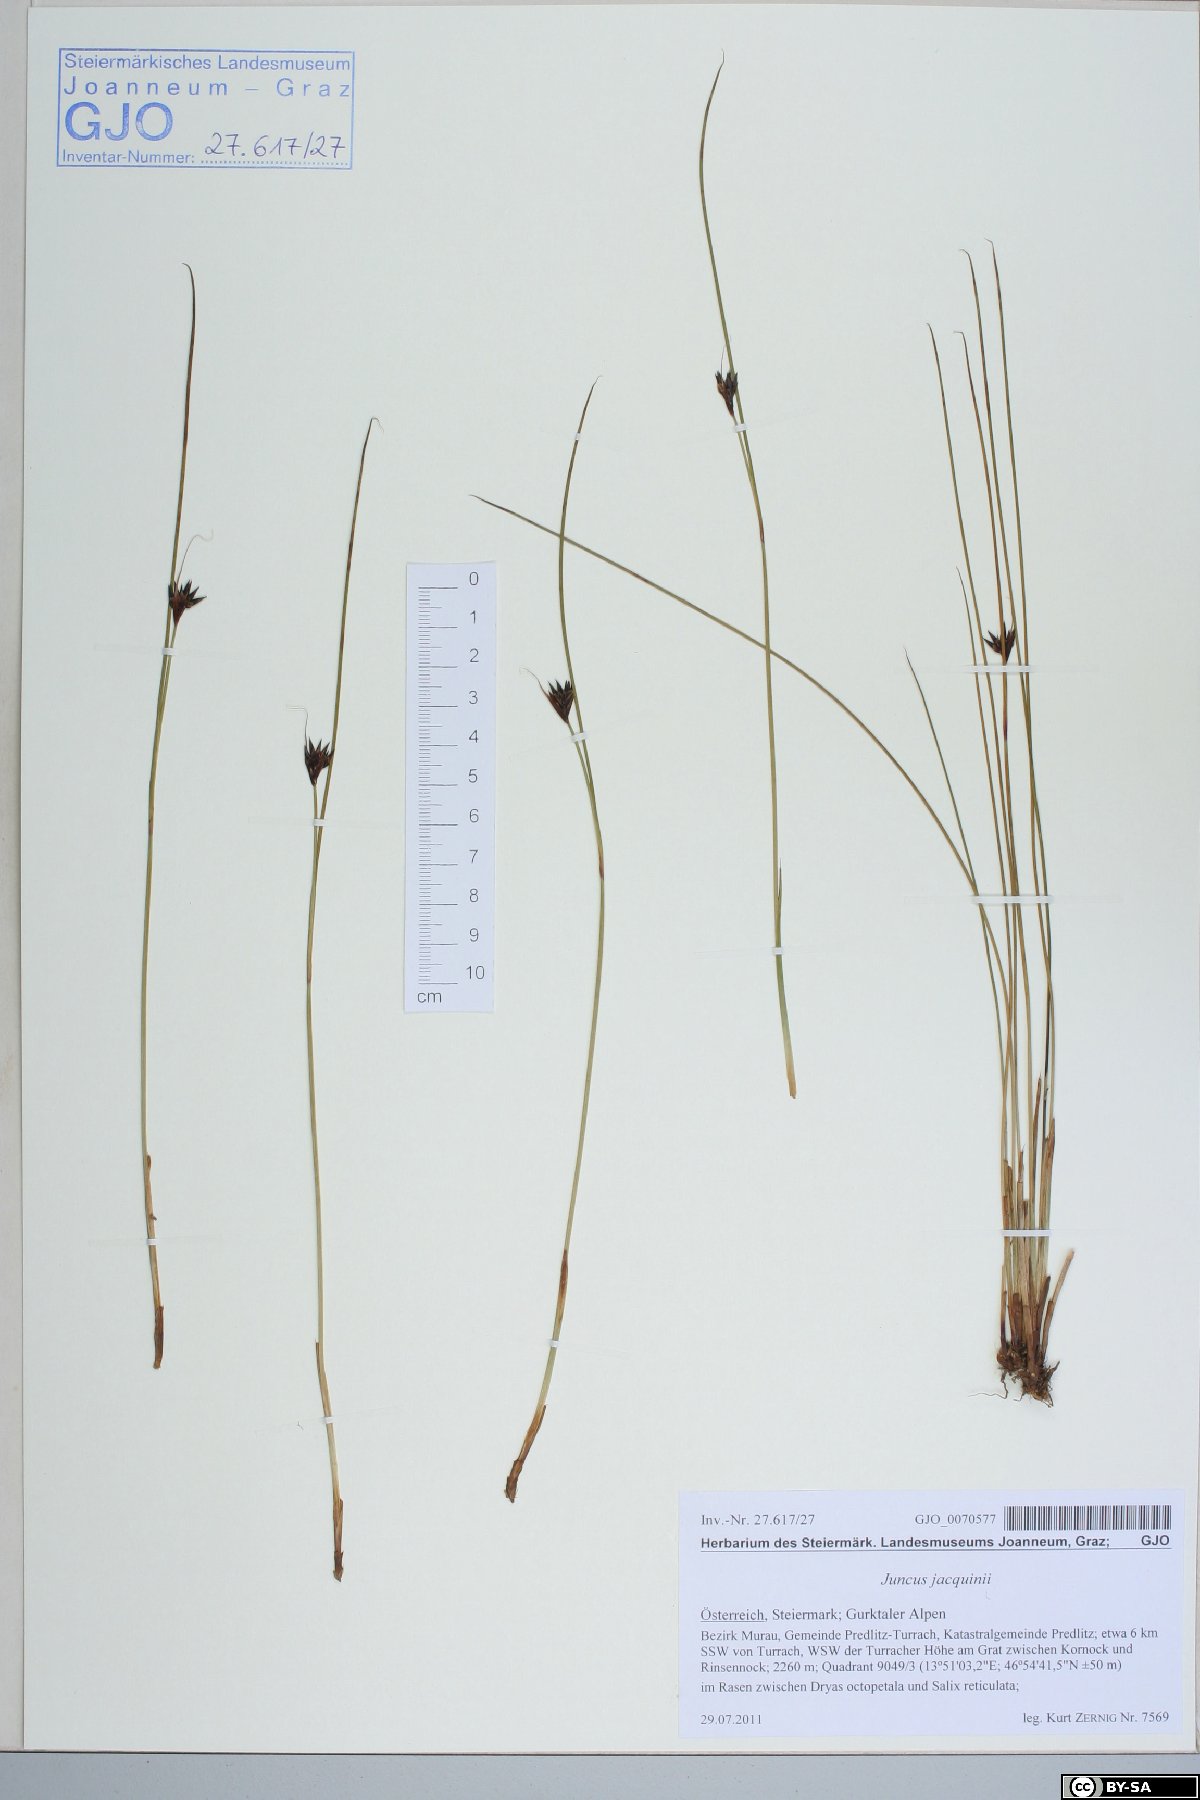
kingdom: Plantae
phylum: Tracheophyta
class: Liliopsida
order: Poales
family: Juncaceae
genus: Juncus
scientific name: Juncus jacquinii
